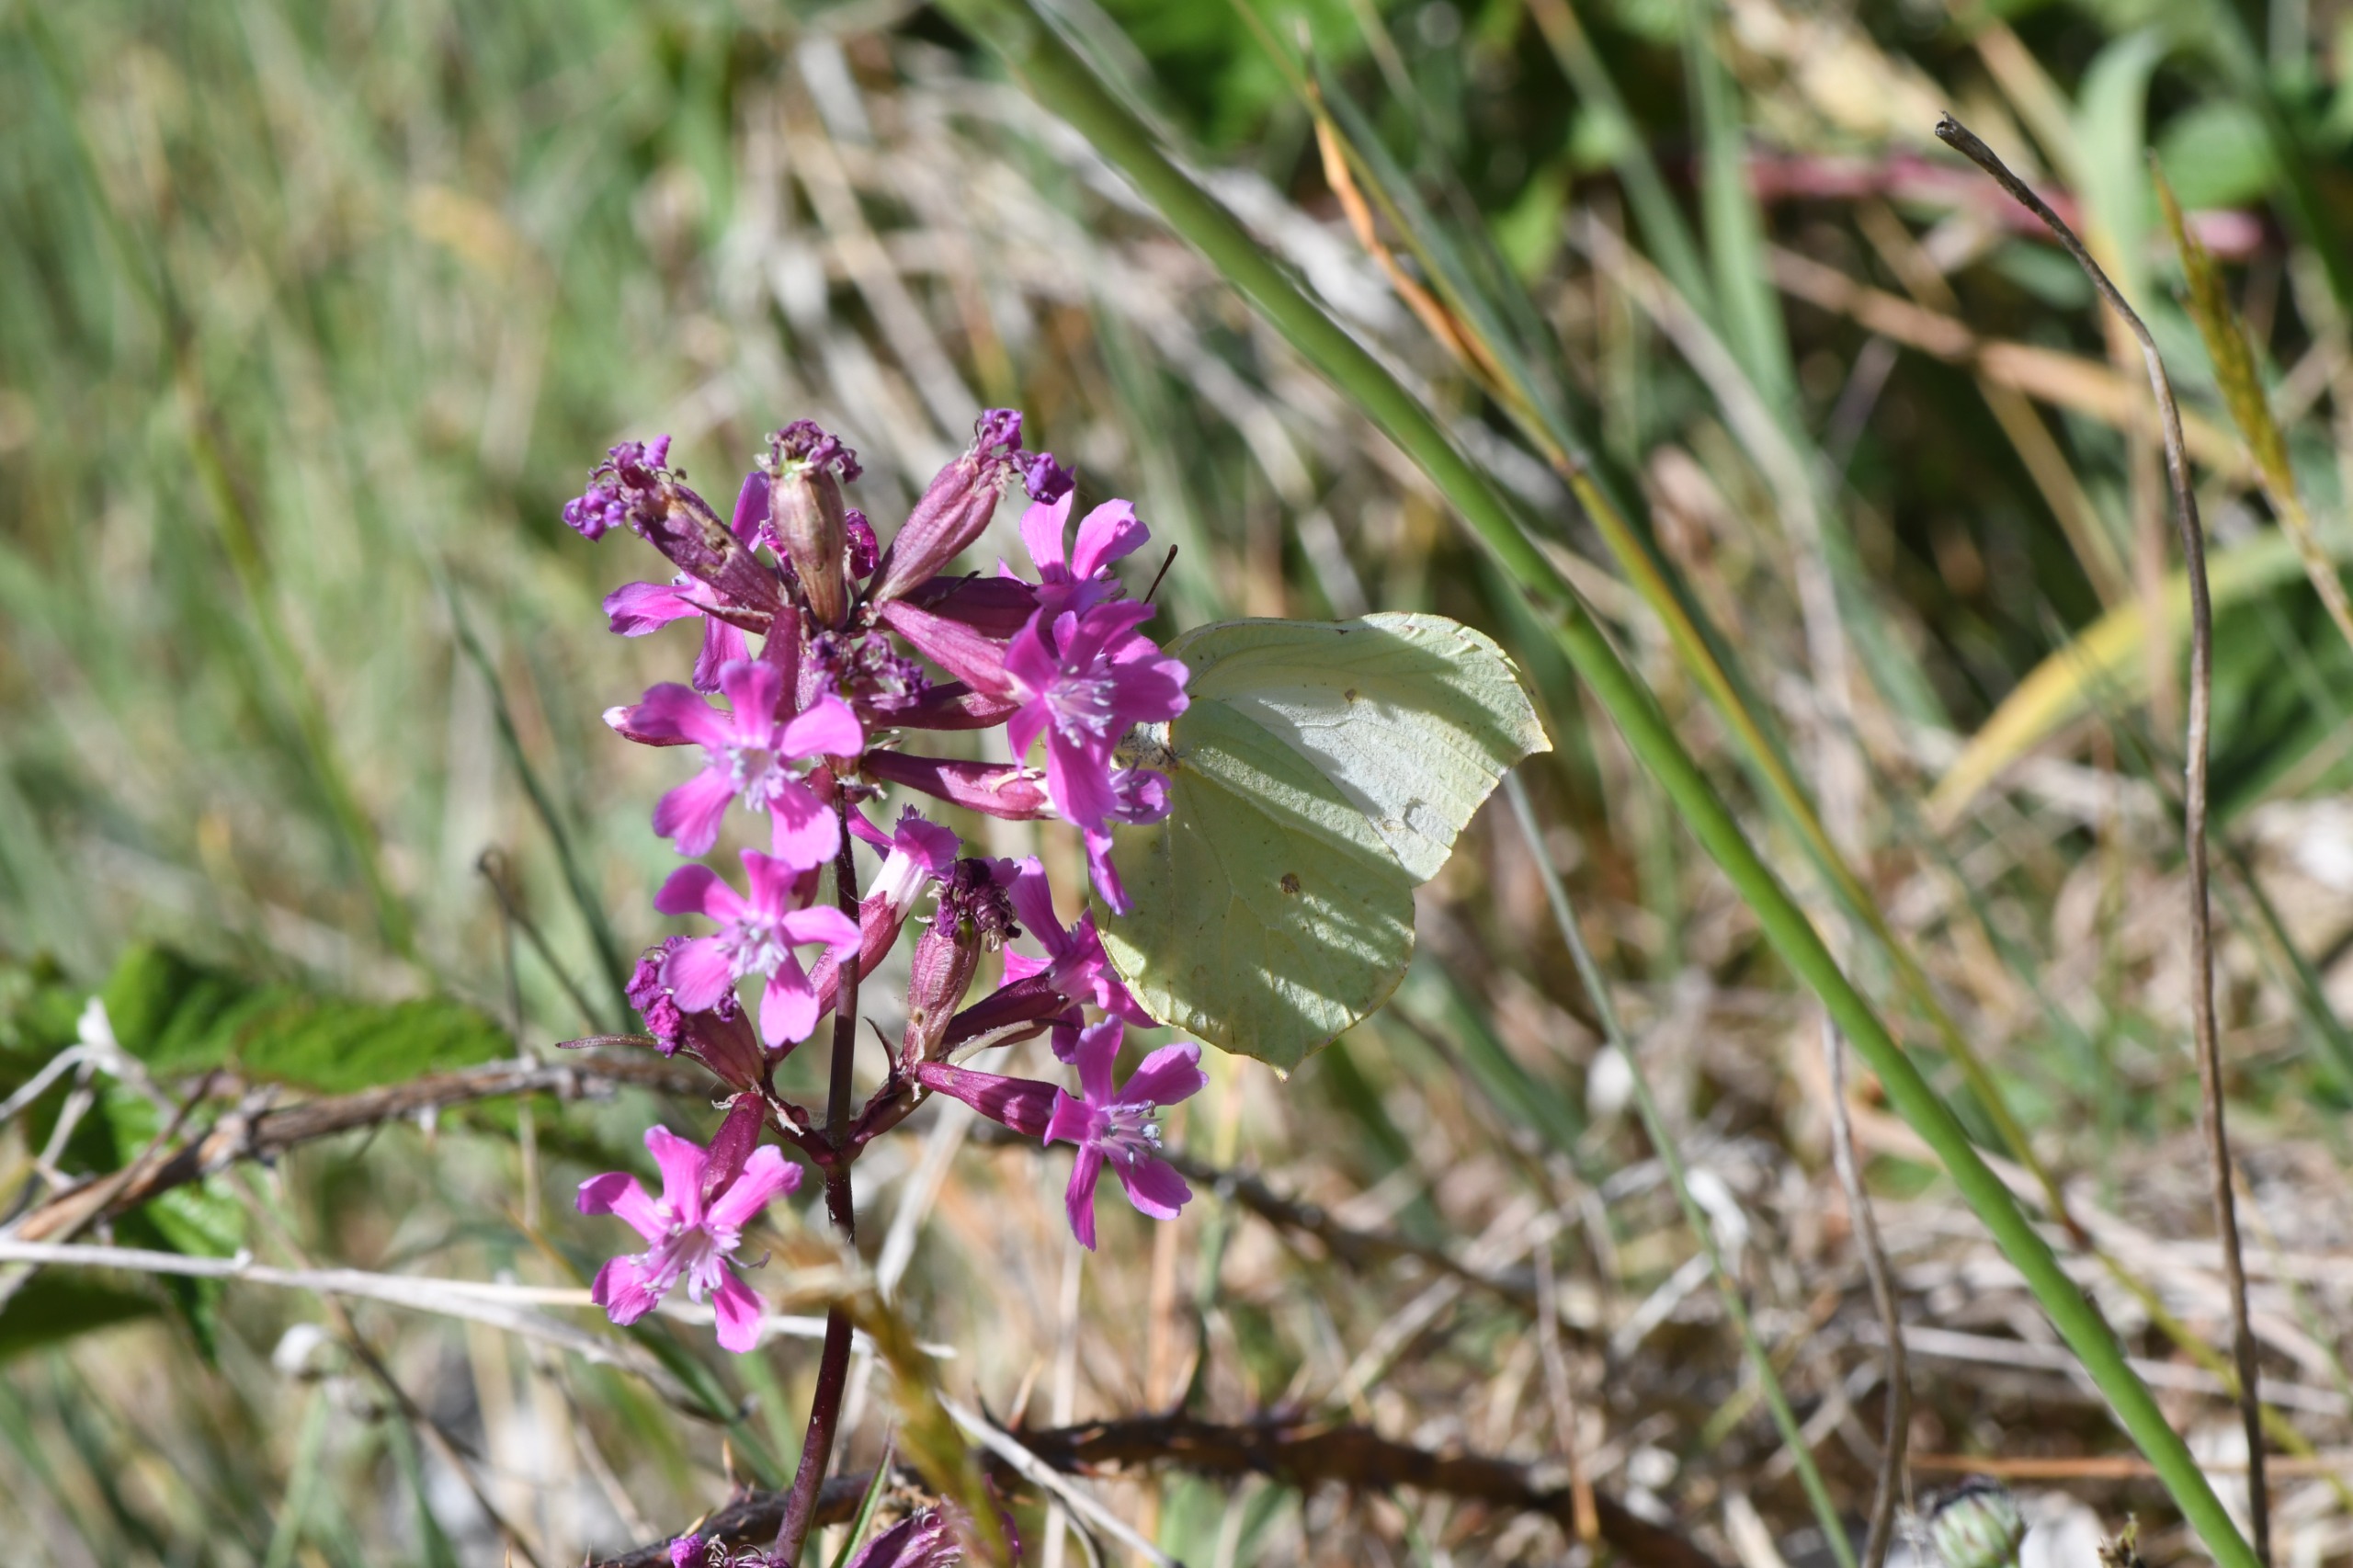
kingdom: Animalia
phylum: Arthropoda
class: Insecta
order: Lepidoptera
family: Pieridae
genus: Gonepteryx
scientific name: Gonepteryx rhamni
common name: Citronsommerfugl
